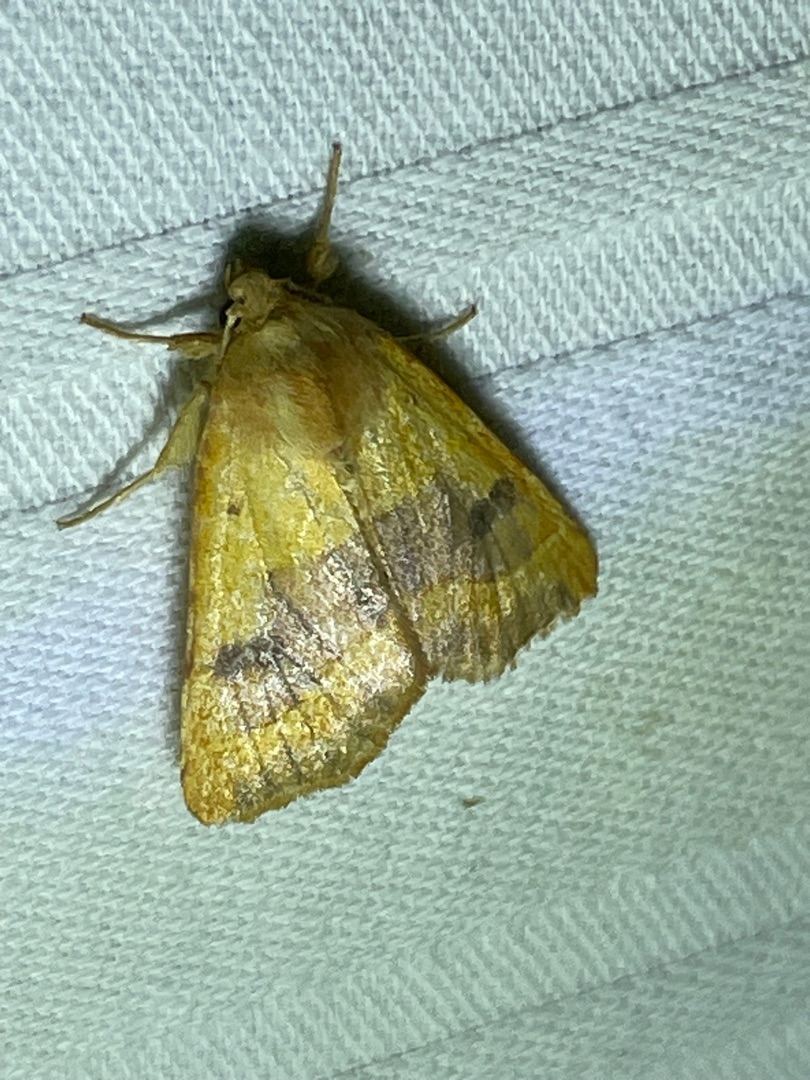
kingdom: Animalia
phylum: Arthropoda
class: Insecta
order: Lepidoptera
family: Noctuidae
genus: Atethmia
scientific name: Atethmia centrago
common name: Aske-septemberugle
